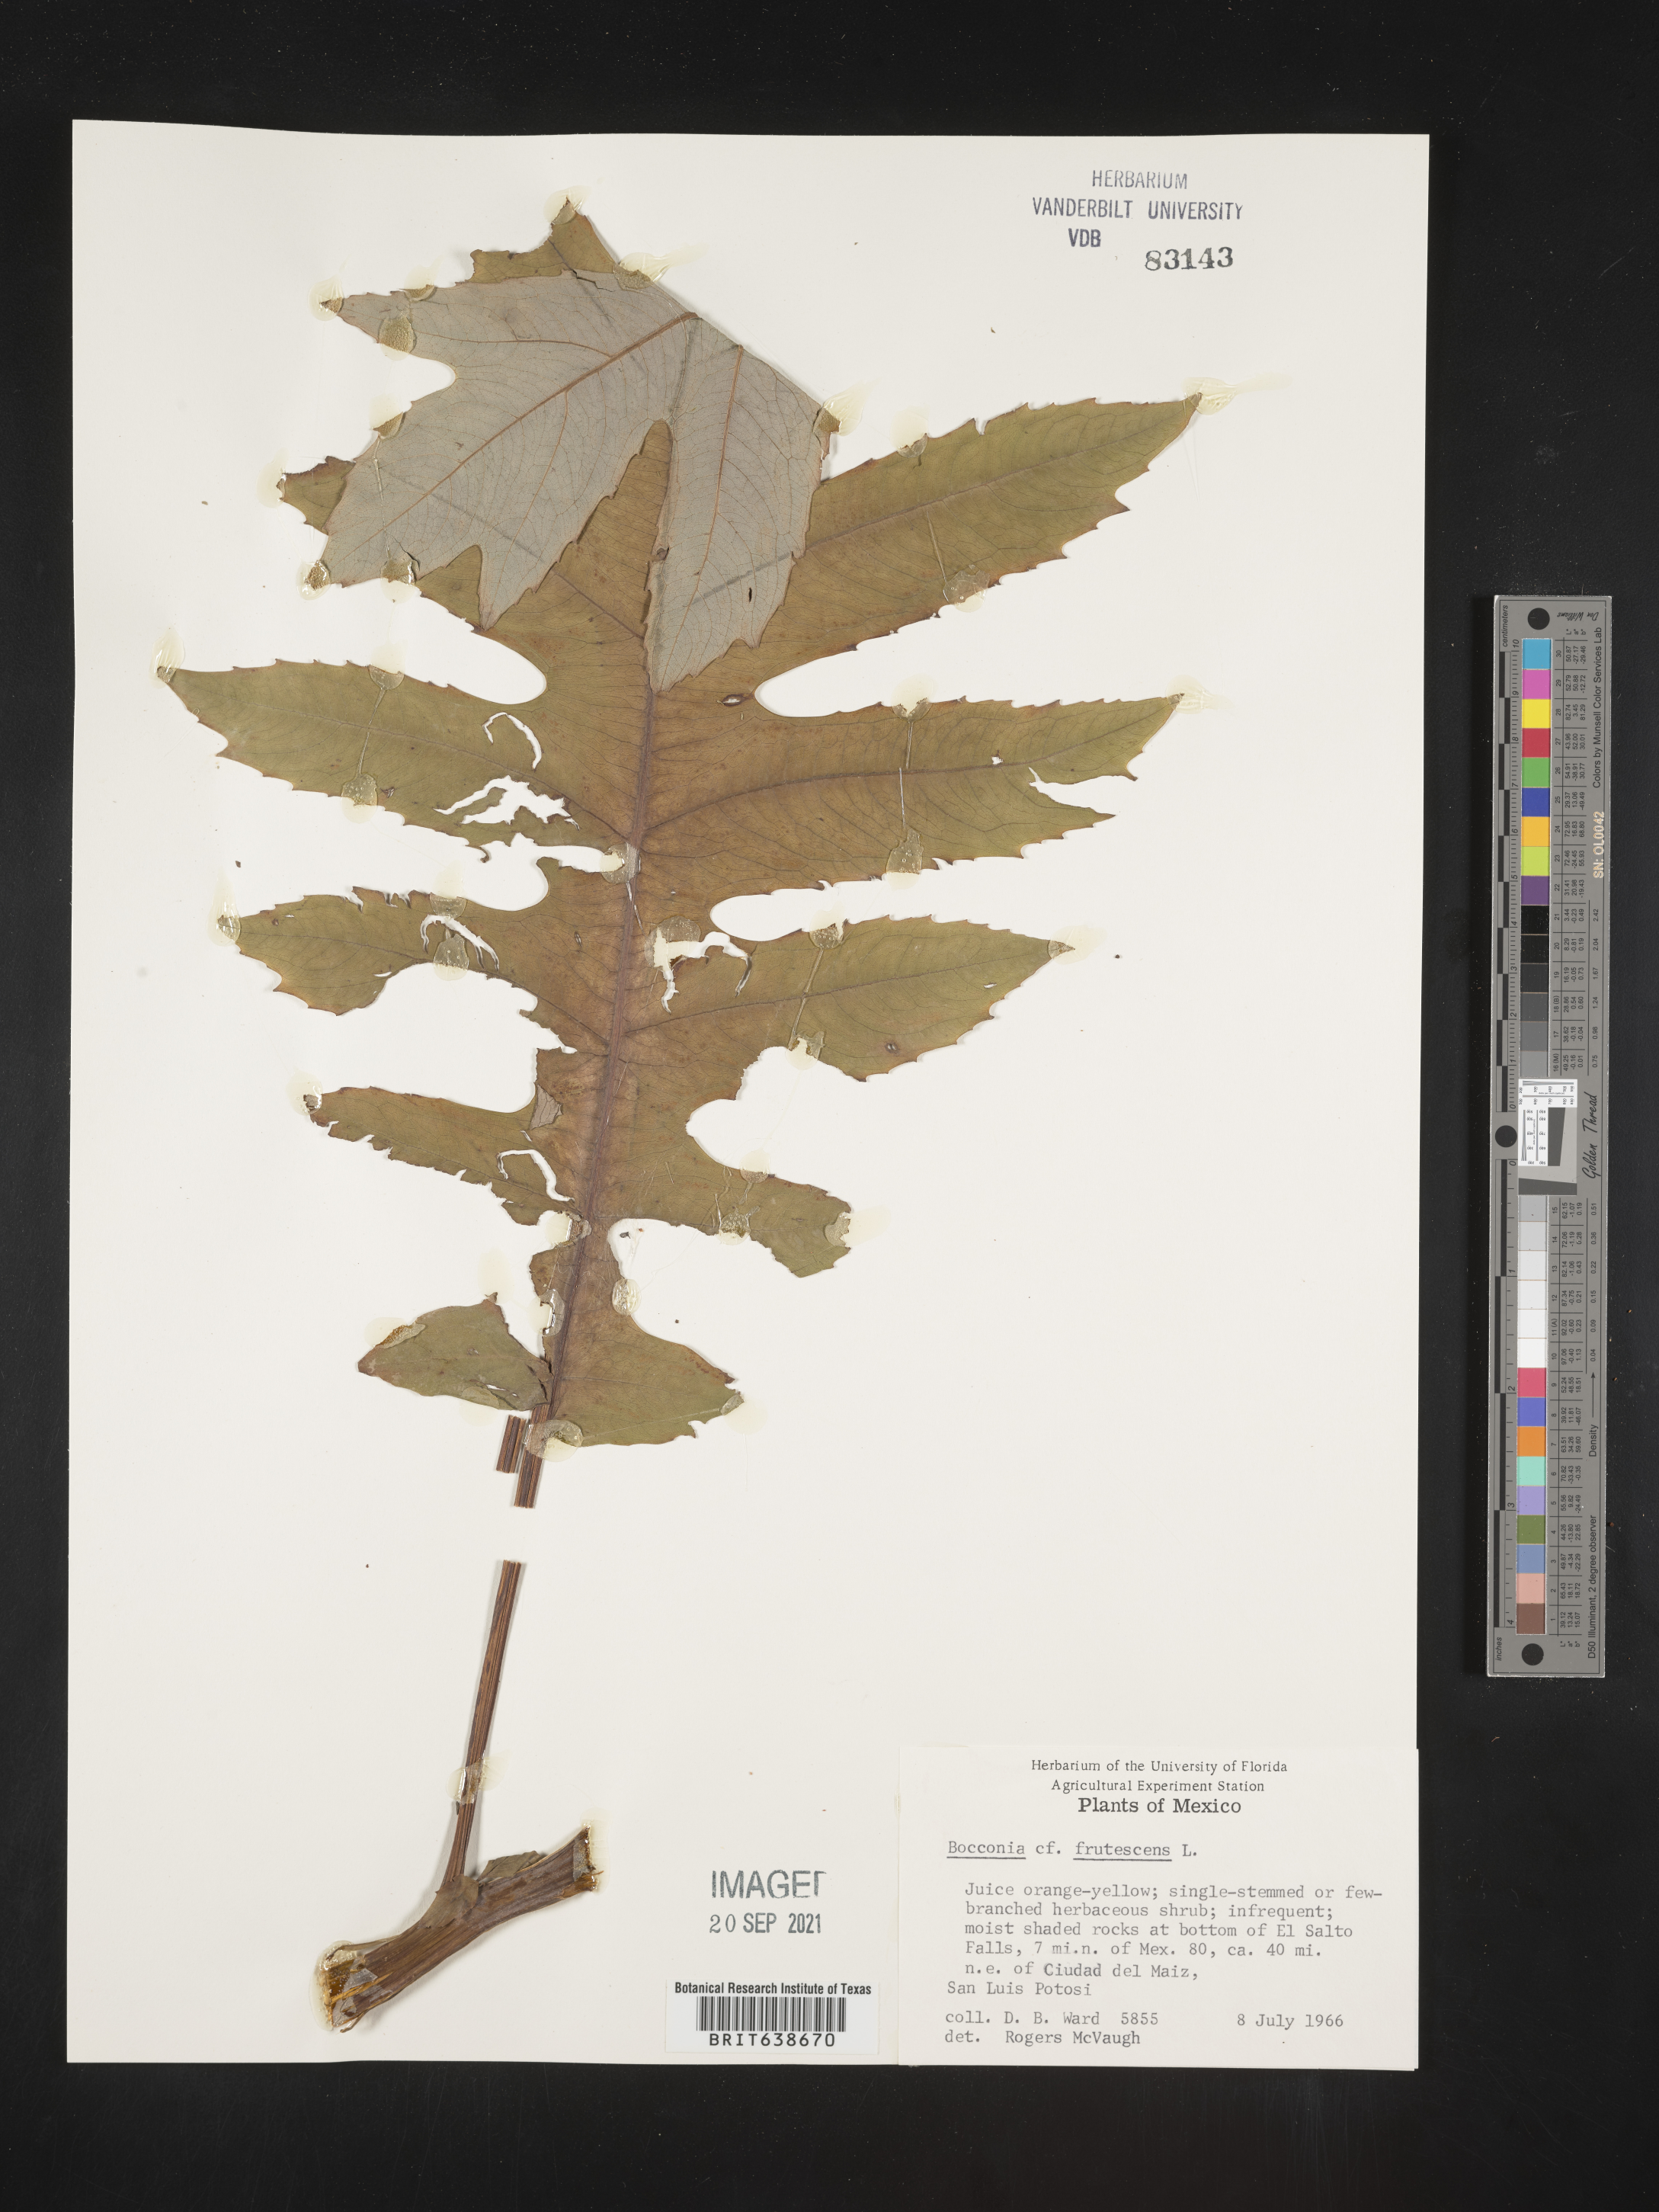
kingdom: Plantae
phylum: Tracheophyta
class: Magnoliopsida
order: Ranunculales
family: Papaveraceae
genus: Bocconia
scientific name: Bocconia
